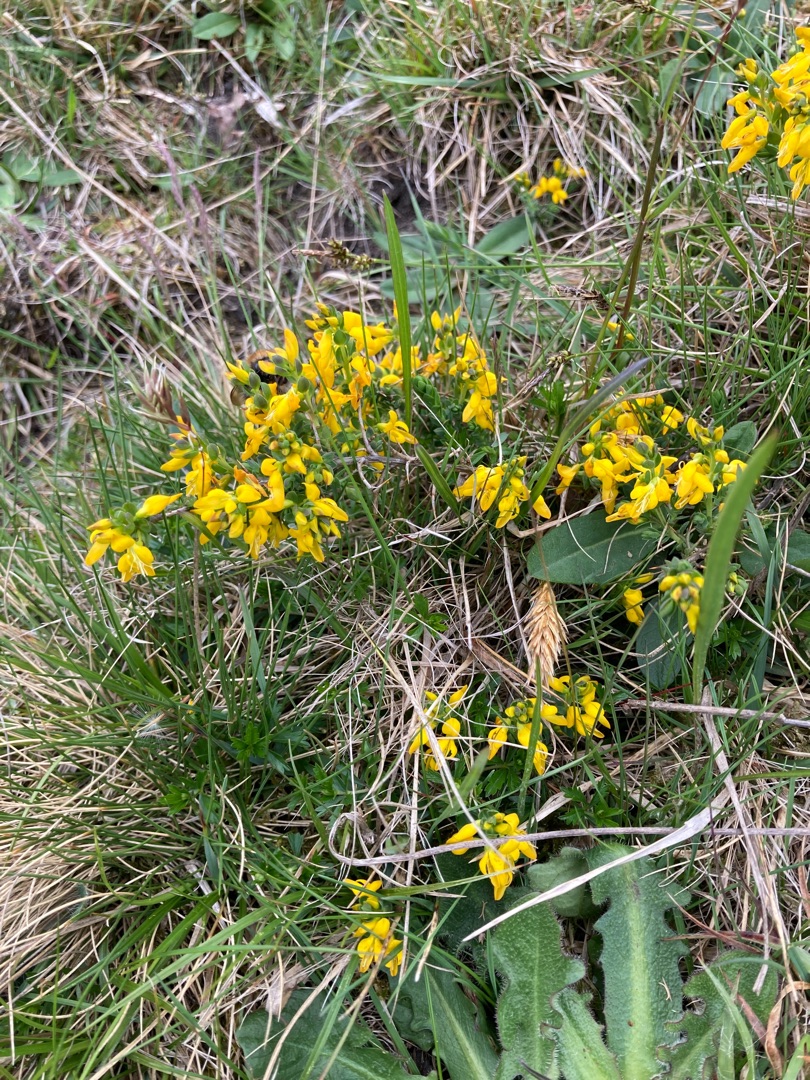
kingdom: Plantae
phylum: Tracheophyta
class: Magnoliopsida
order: Fabales
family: Fabaceae
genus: Genista
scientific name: Genista anglica
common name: Engelsk visse
